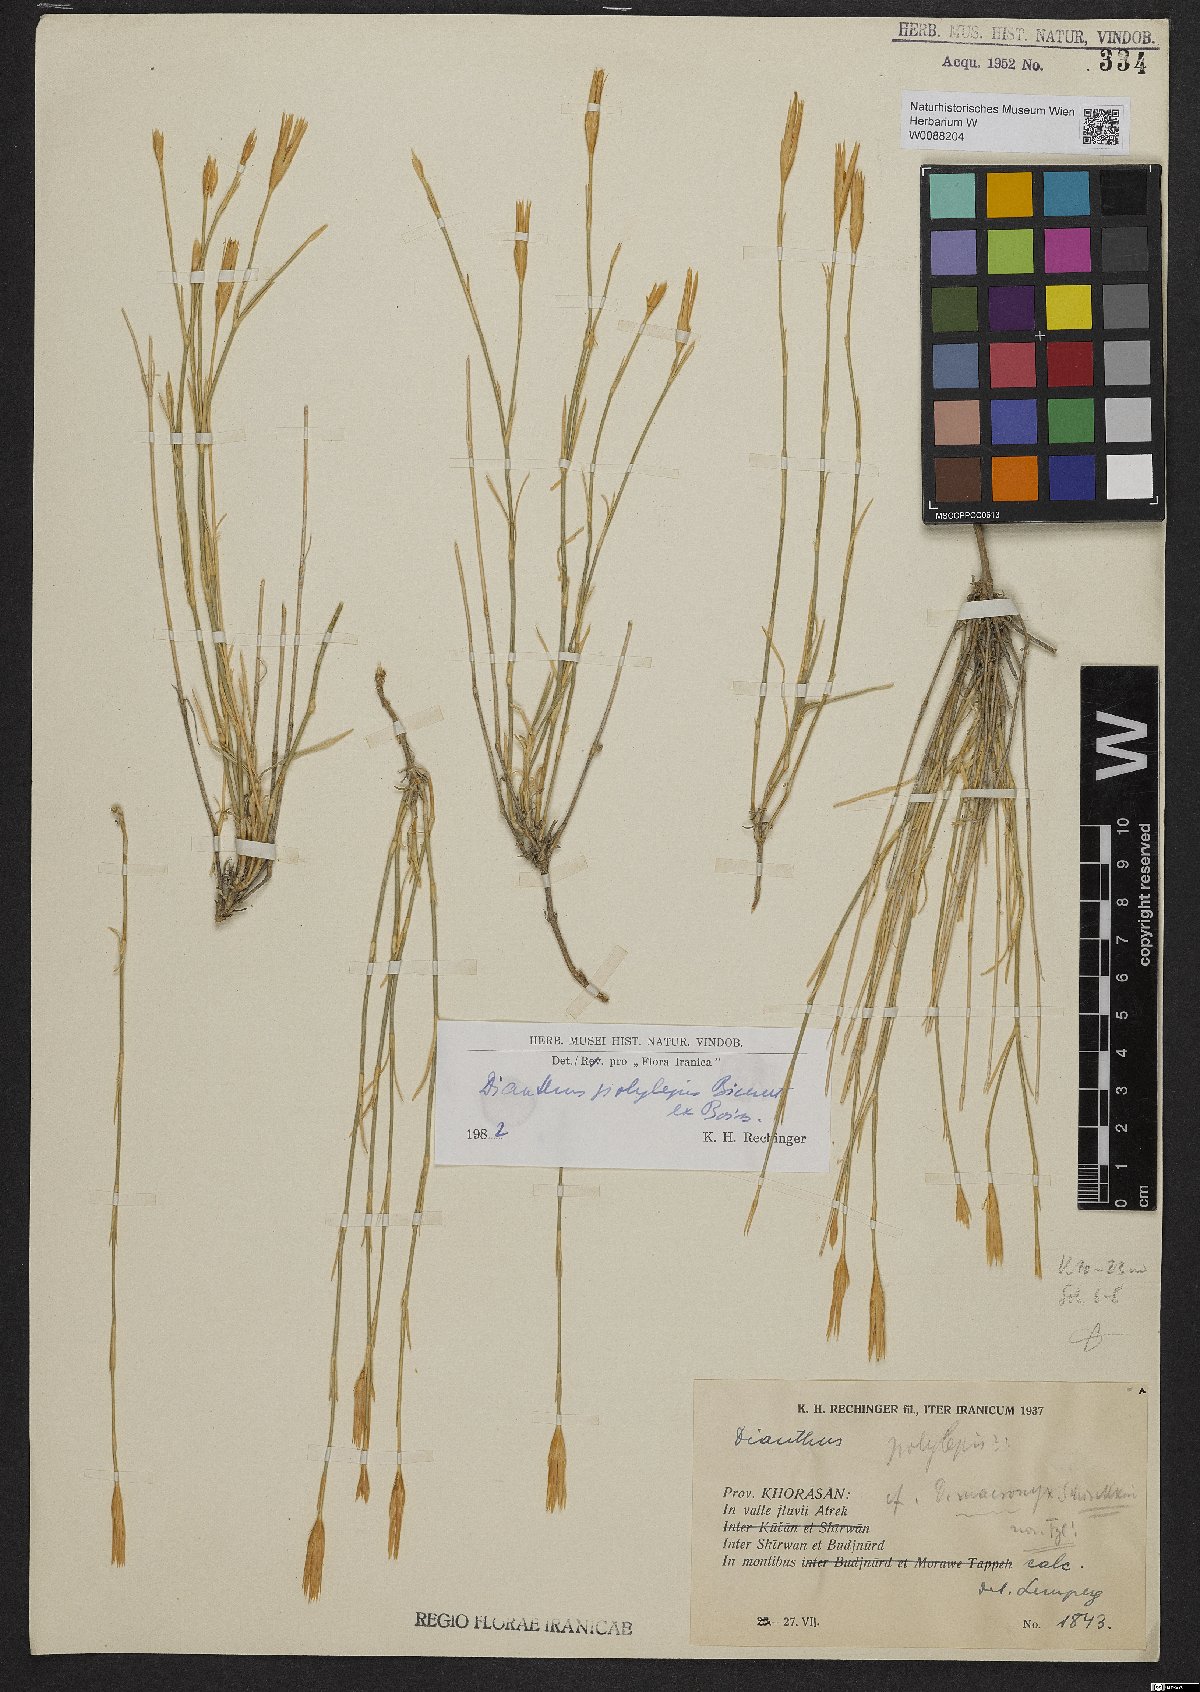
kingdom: Plantae
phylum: Tracheophyta
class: Magnoliopsida
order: Caryophyllales
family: Caryophyllaceae
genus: Dianthus
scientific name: Dianthus polylepis
